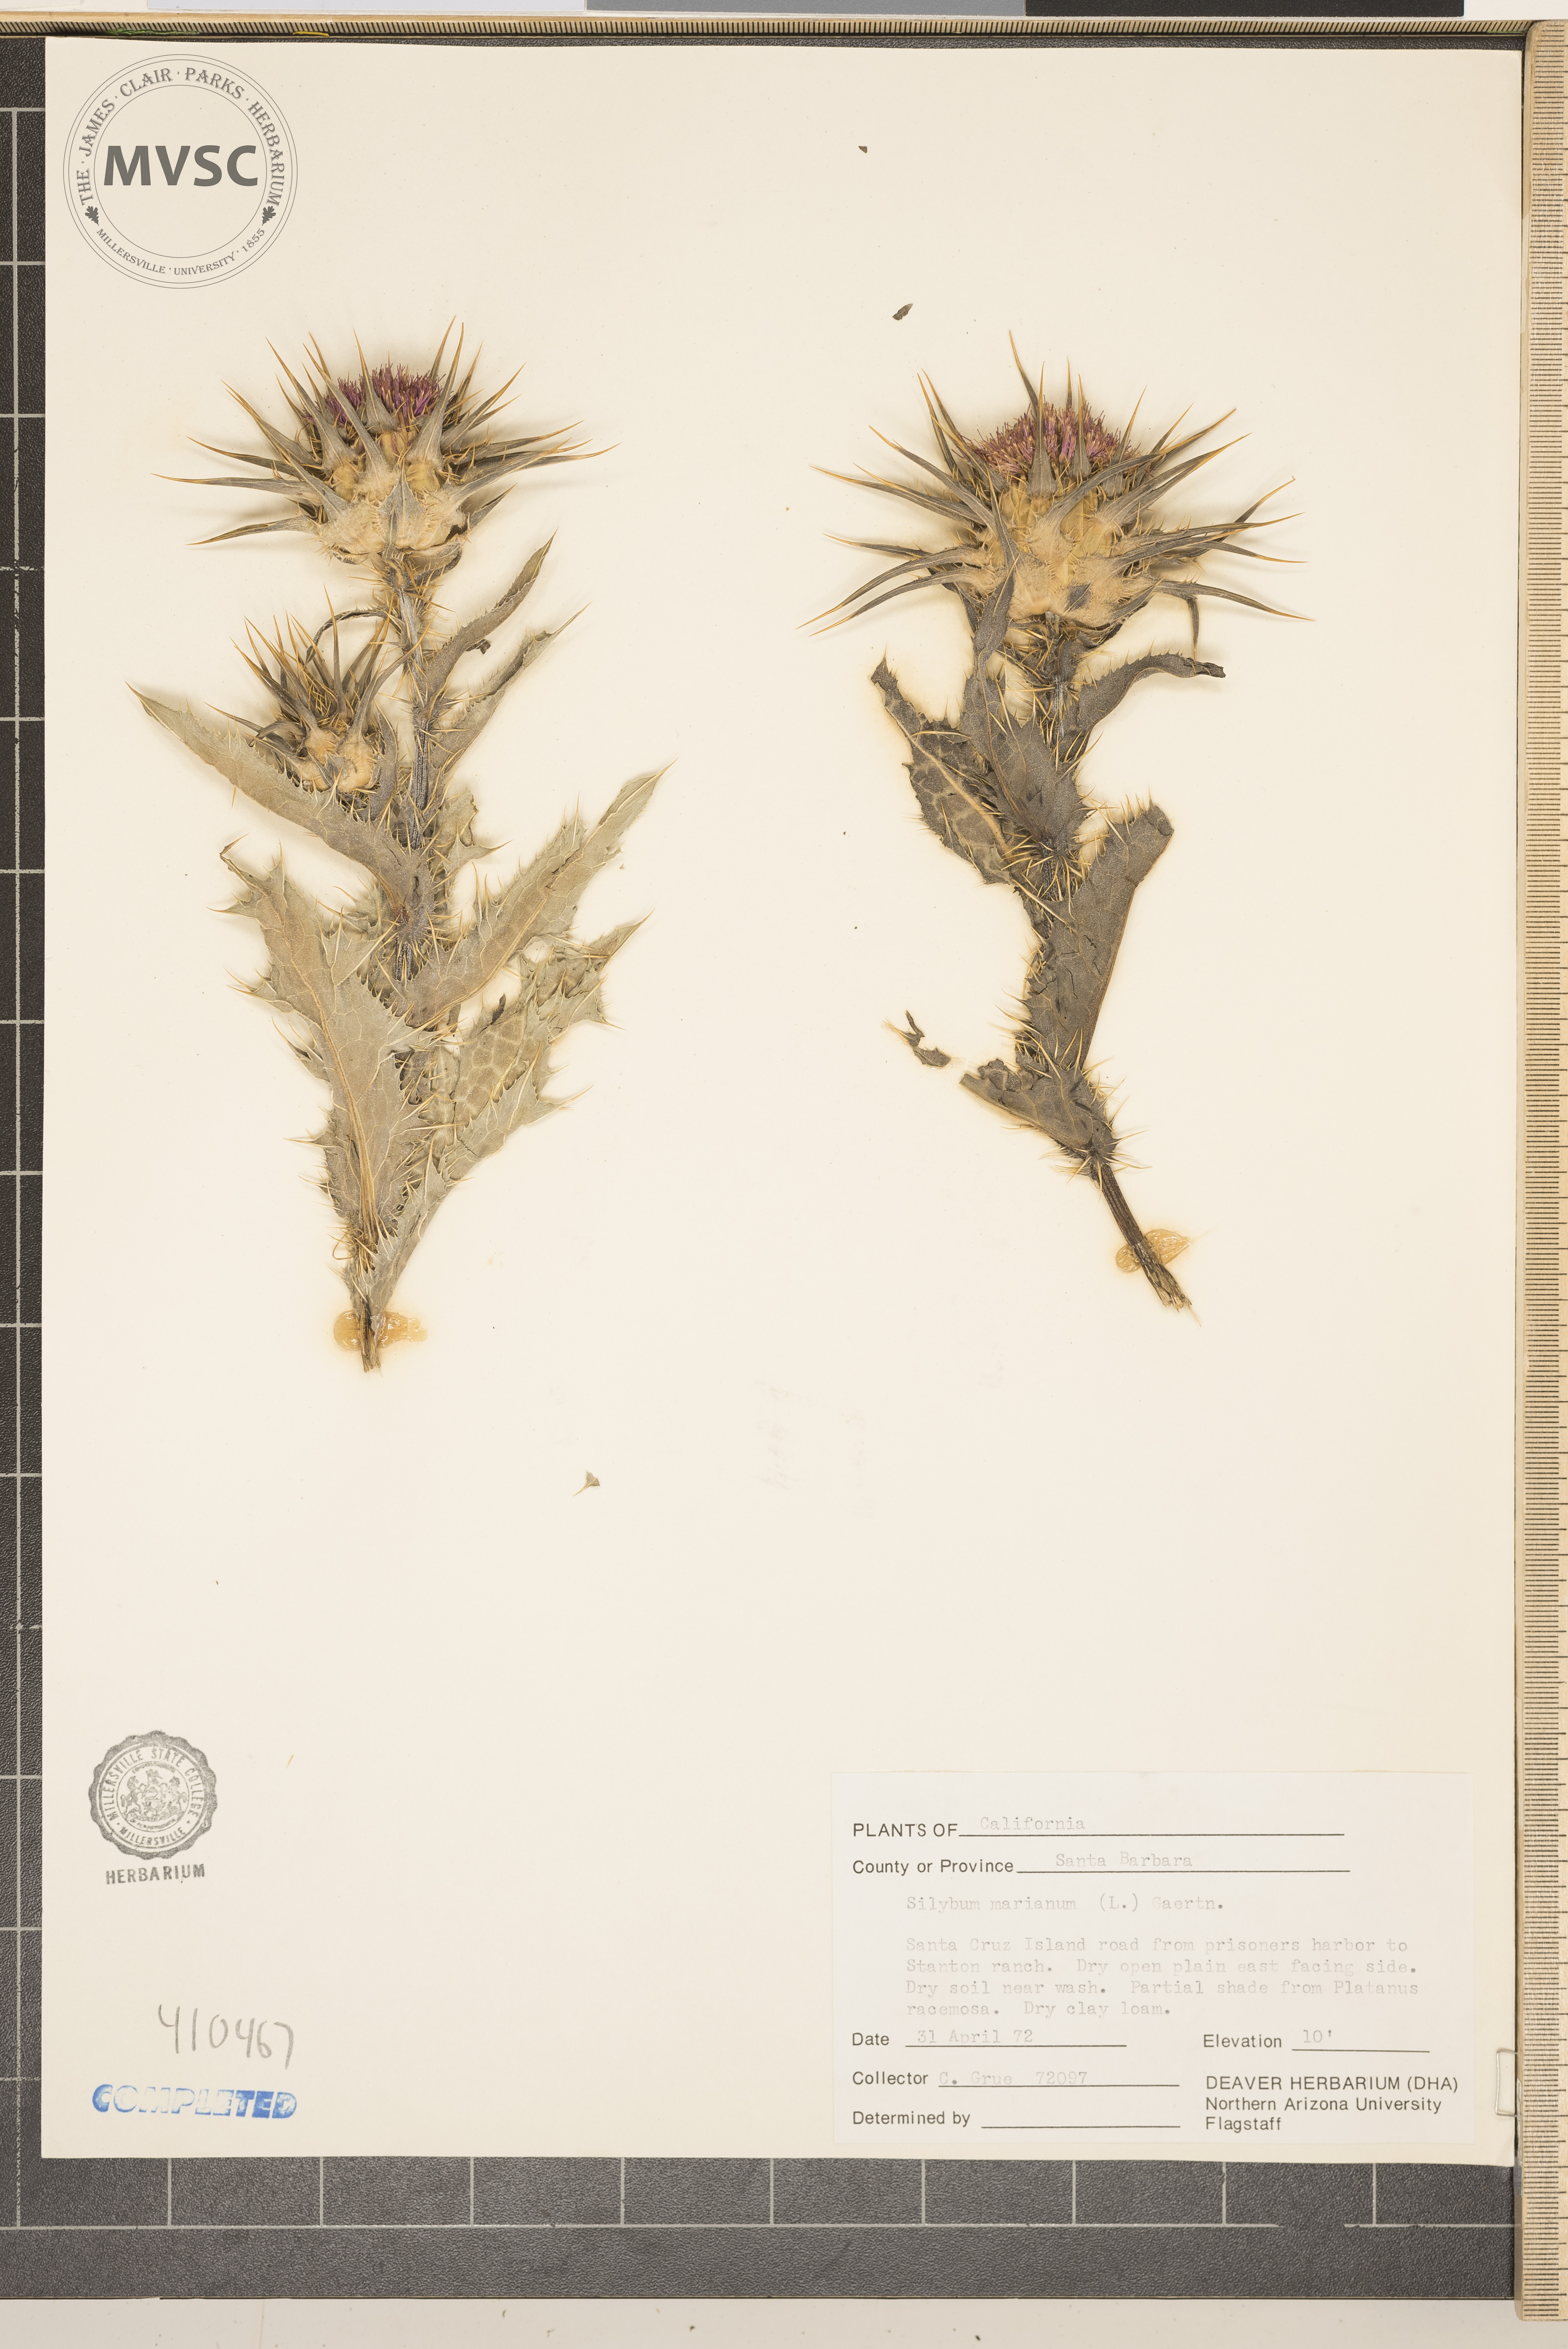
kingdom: Plantae
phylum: Tracheophyta
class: Magnoliopsida
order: Asterales
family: Asteraceae
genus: Silybum
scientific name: Silybum marianum
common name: Milk thistle
